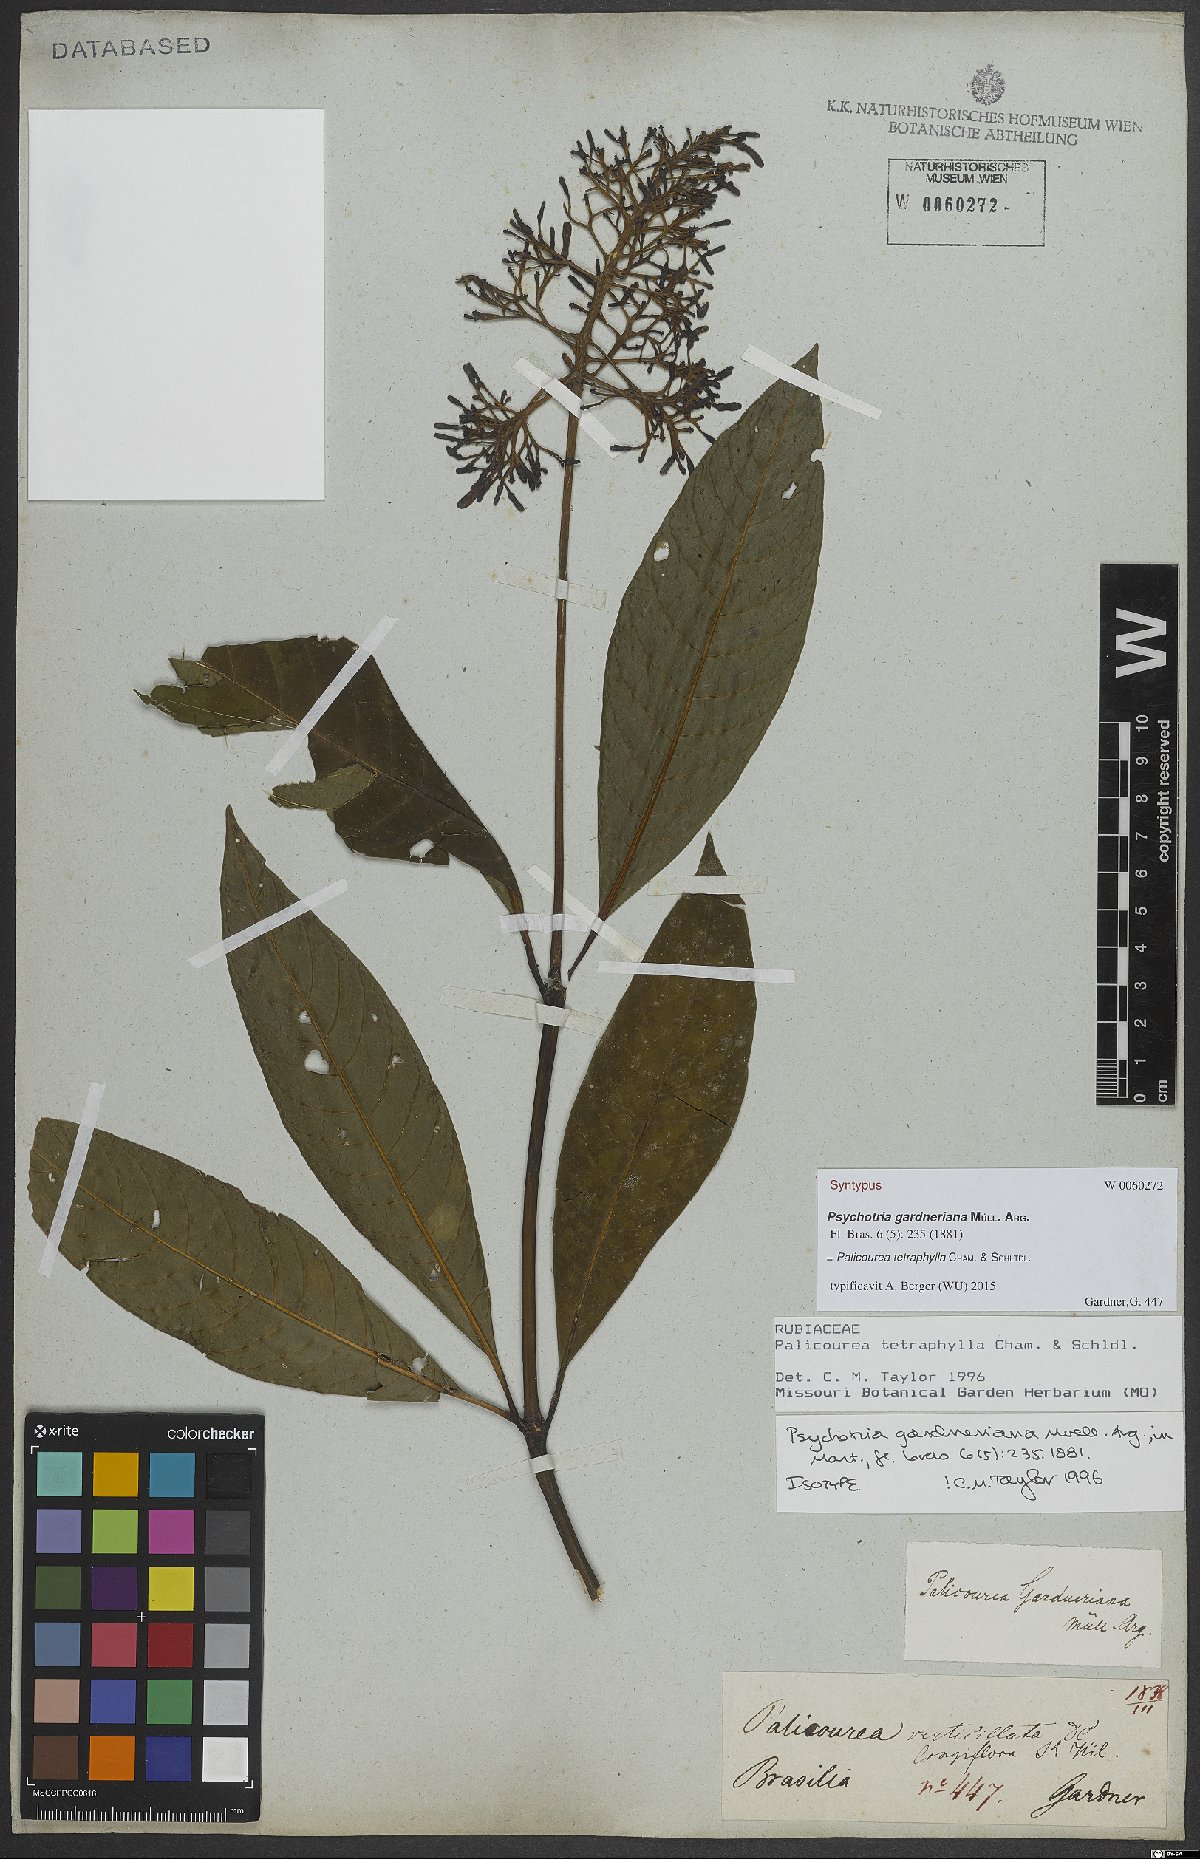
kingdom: Plantae
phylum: Tracheophyta
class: Magnoliopsida
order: Gentianales
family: Rubiaceae
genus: Palicourea
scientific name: Palicourea tetraphylla
